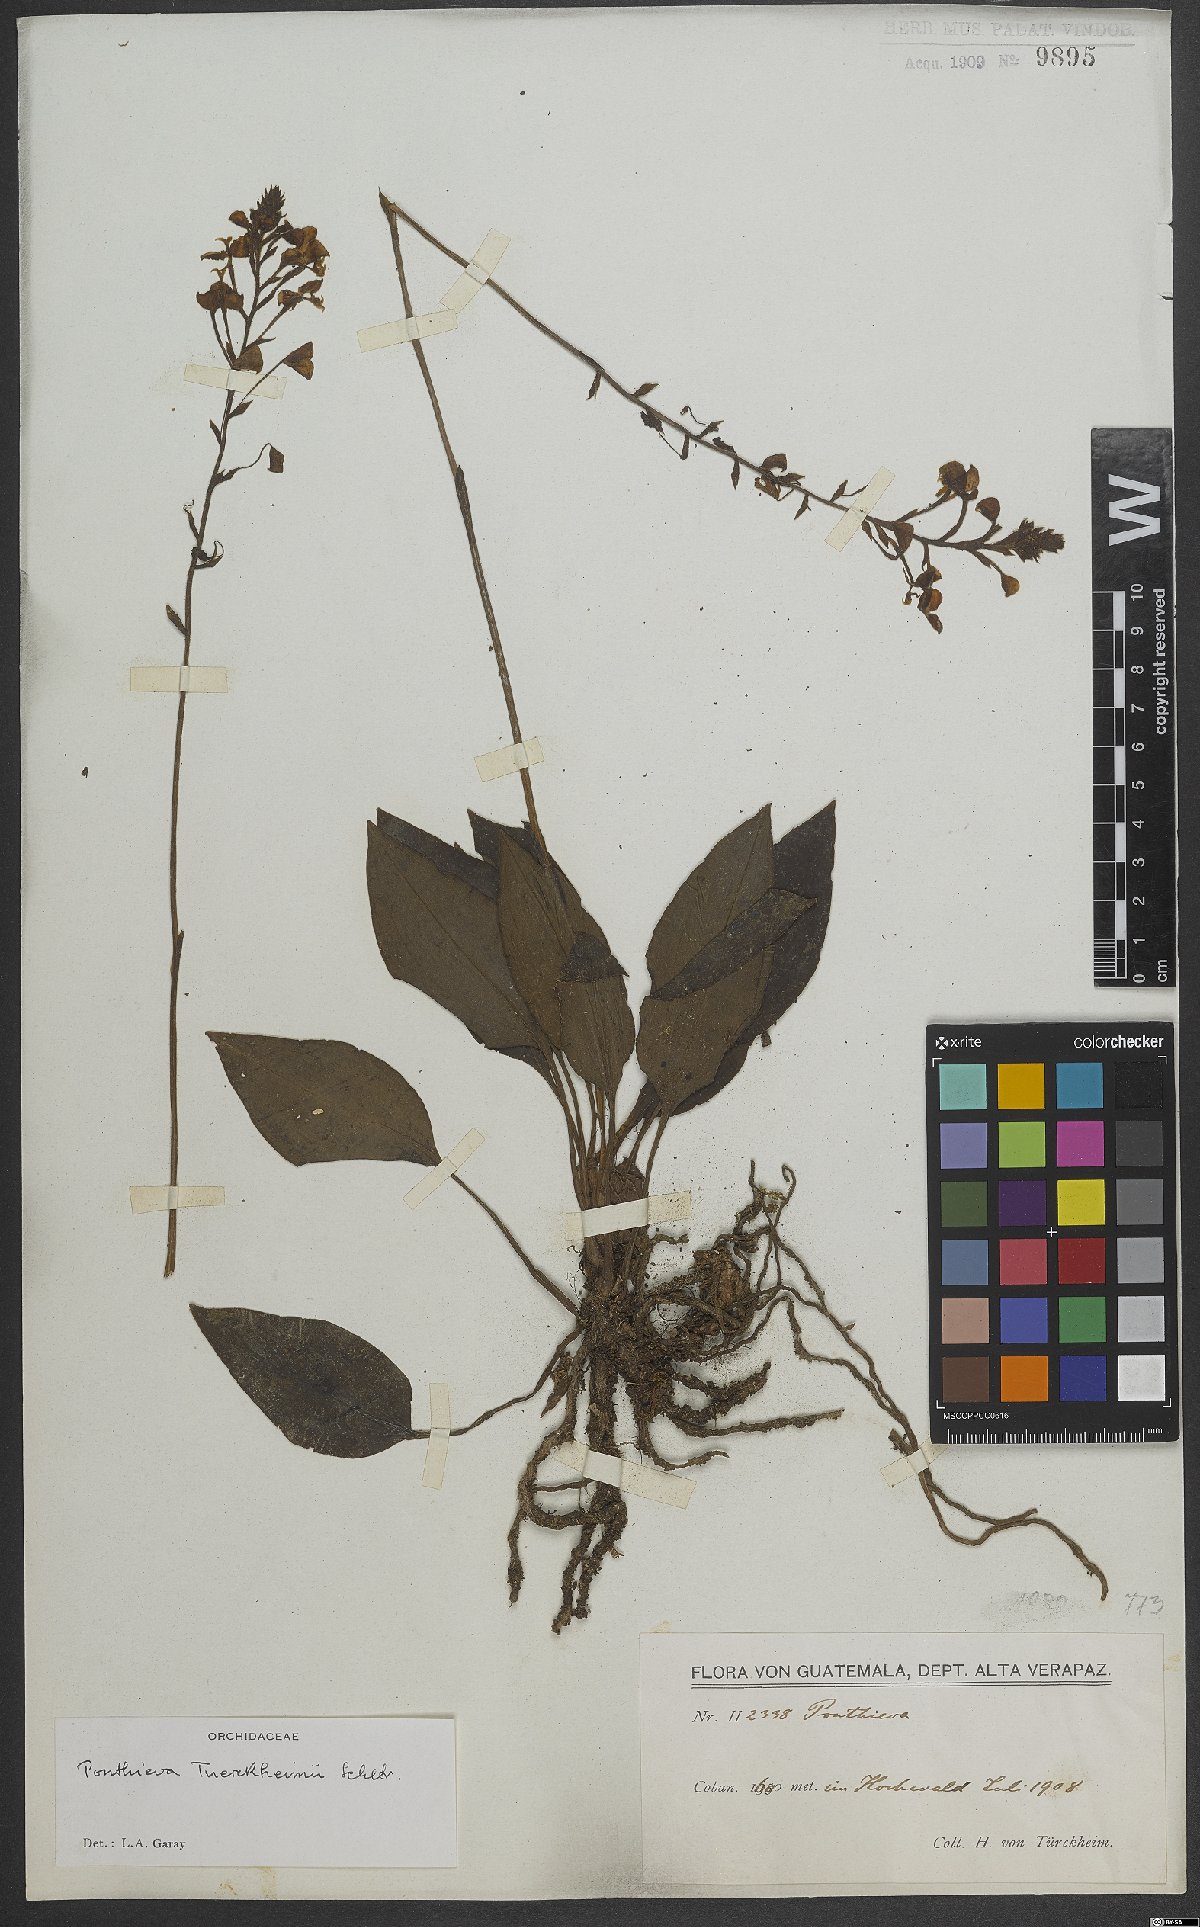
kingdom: Plantae
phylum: Tracheophyta
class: Liliopsida
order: Asparagales
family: Orchidaceae
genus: Ponthieva
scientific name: Ponthieva tuerckheimii
